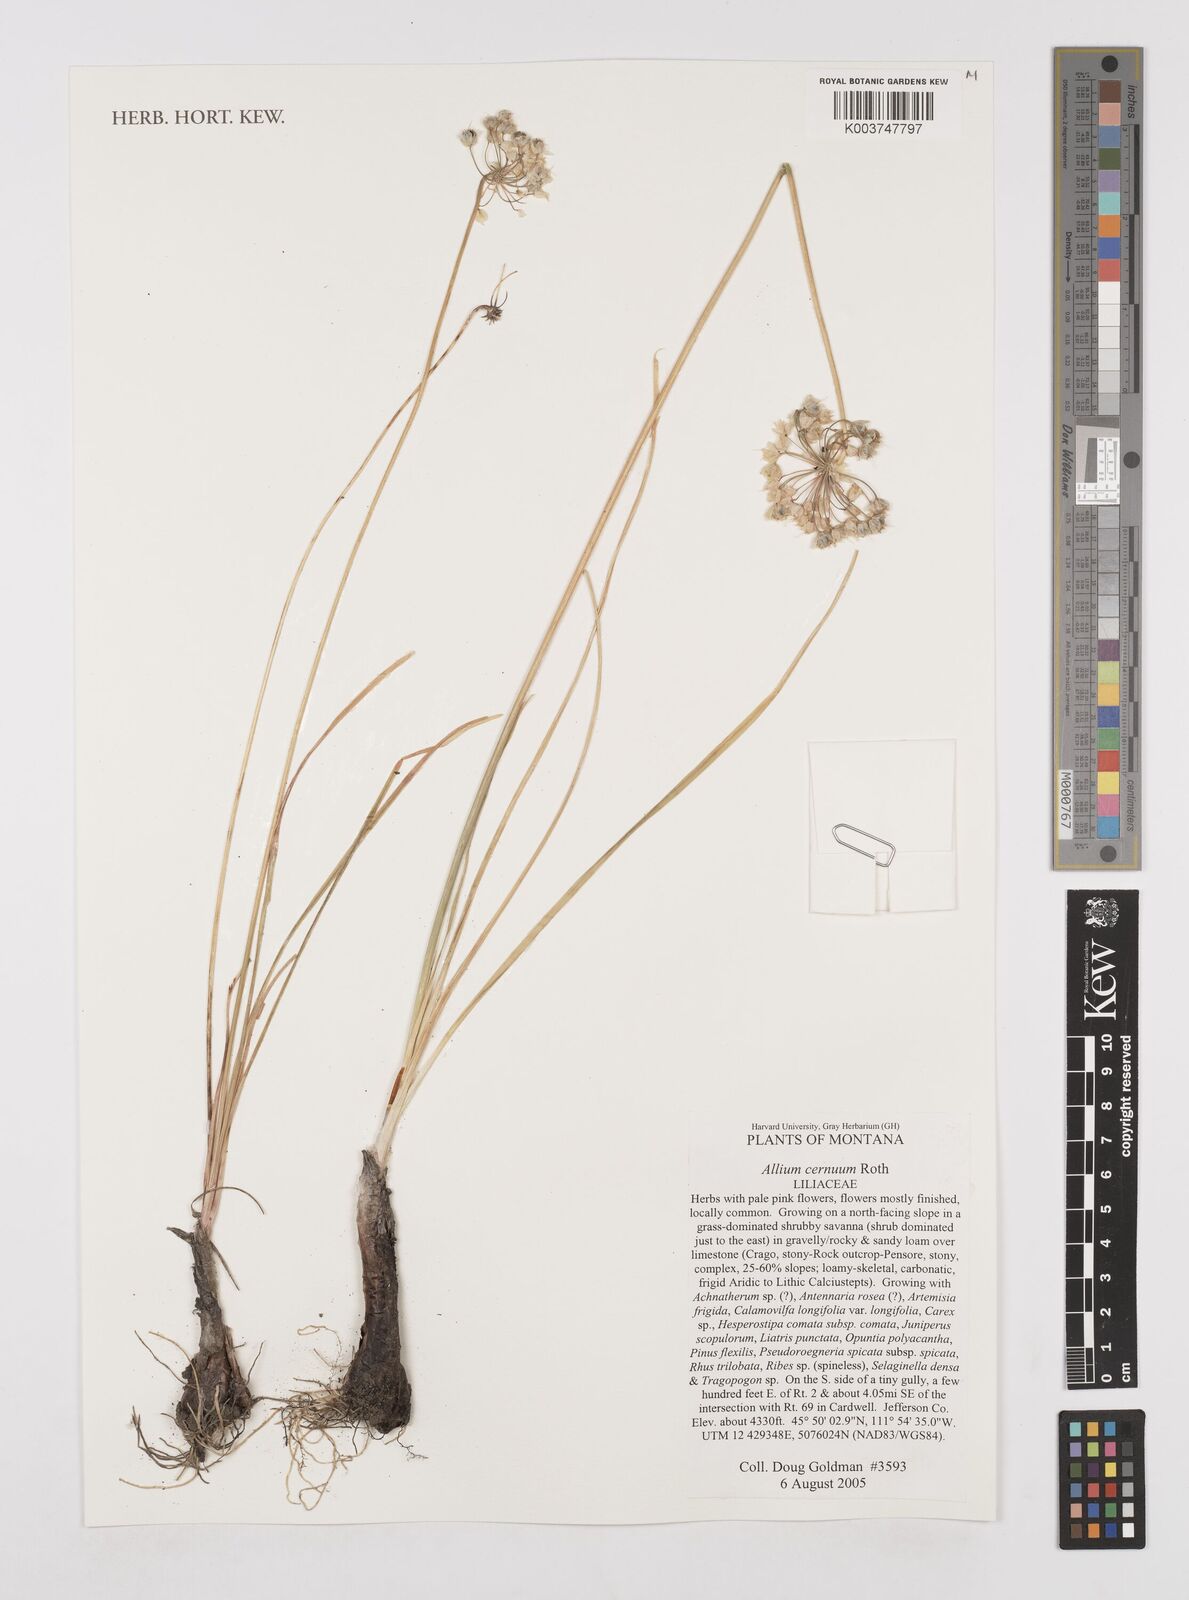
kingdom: Plantae
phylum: Tracheophyta
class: Liliopsida
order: Asparagales
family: Amaryllidaceae
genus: Allium
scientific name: Allium cernuum
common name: Nodding onion
